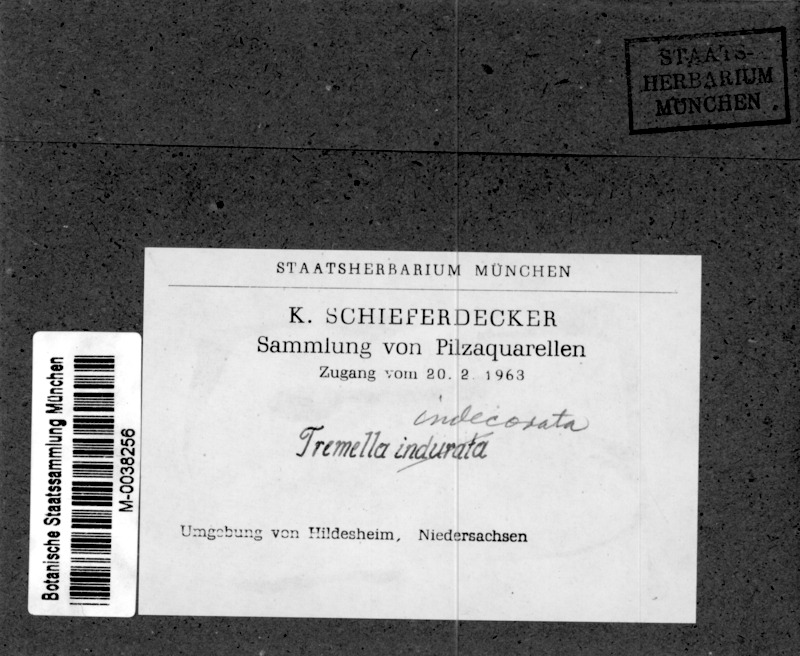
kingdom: Plantae
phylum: Tracheophyta
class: Magnoliopsida
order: Fagales
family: Betulaceae
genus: Betula
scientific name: Betula
